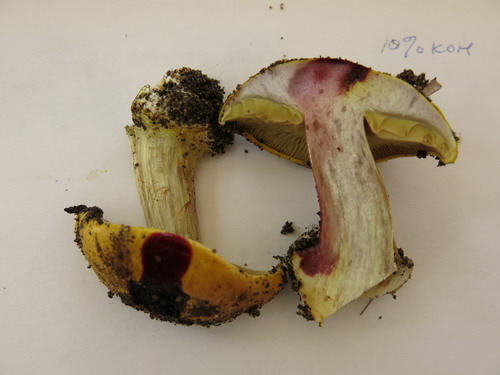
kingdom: Fungi
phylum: Basidiomycota
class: Agaricomycetes
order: Agaricales
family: Cortinariaceae
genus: Cortinarius
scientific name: Cortinarius bergeronii
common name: prægtig slørhat
